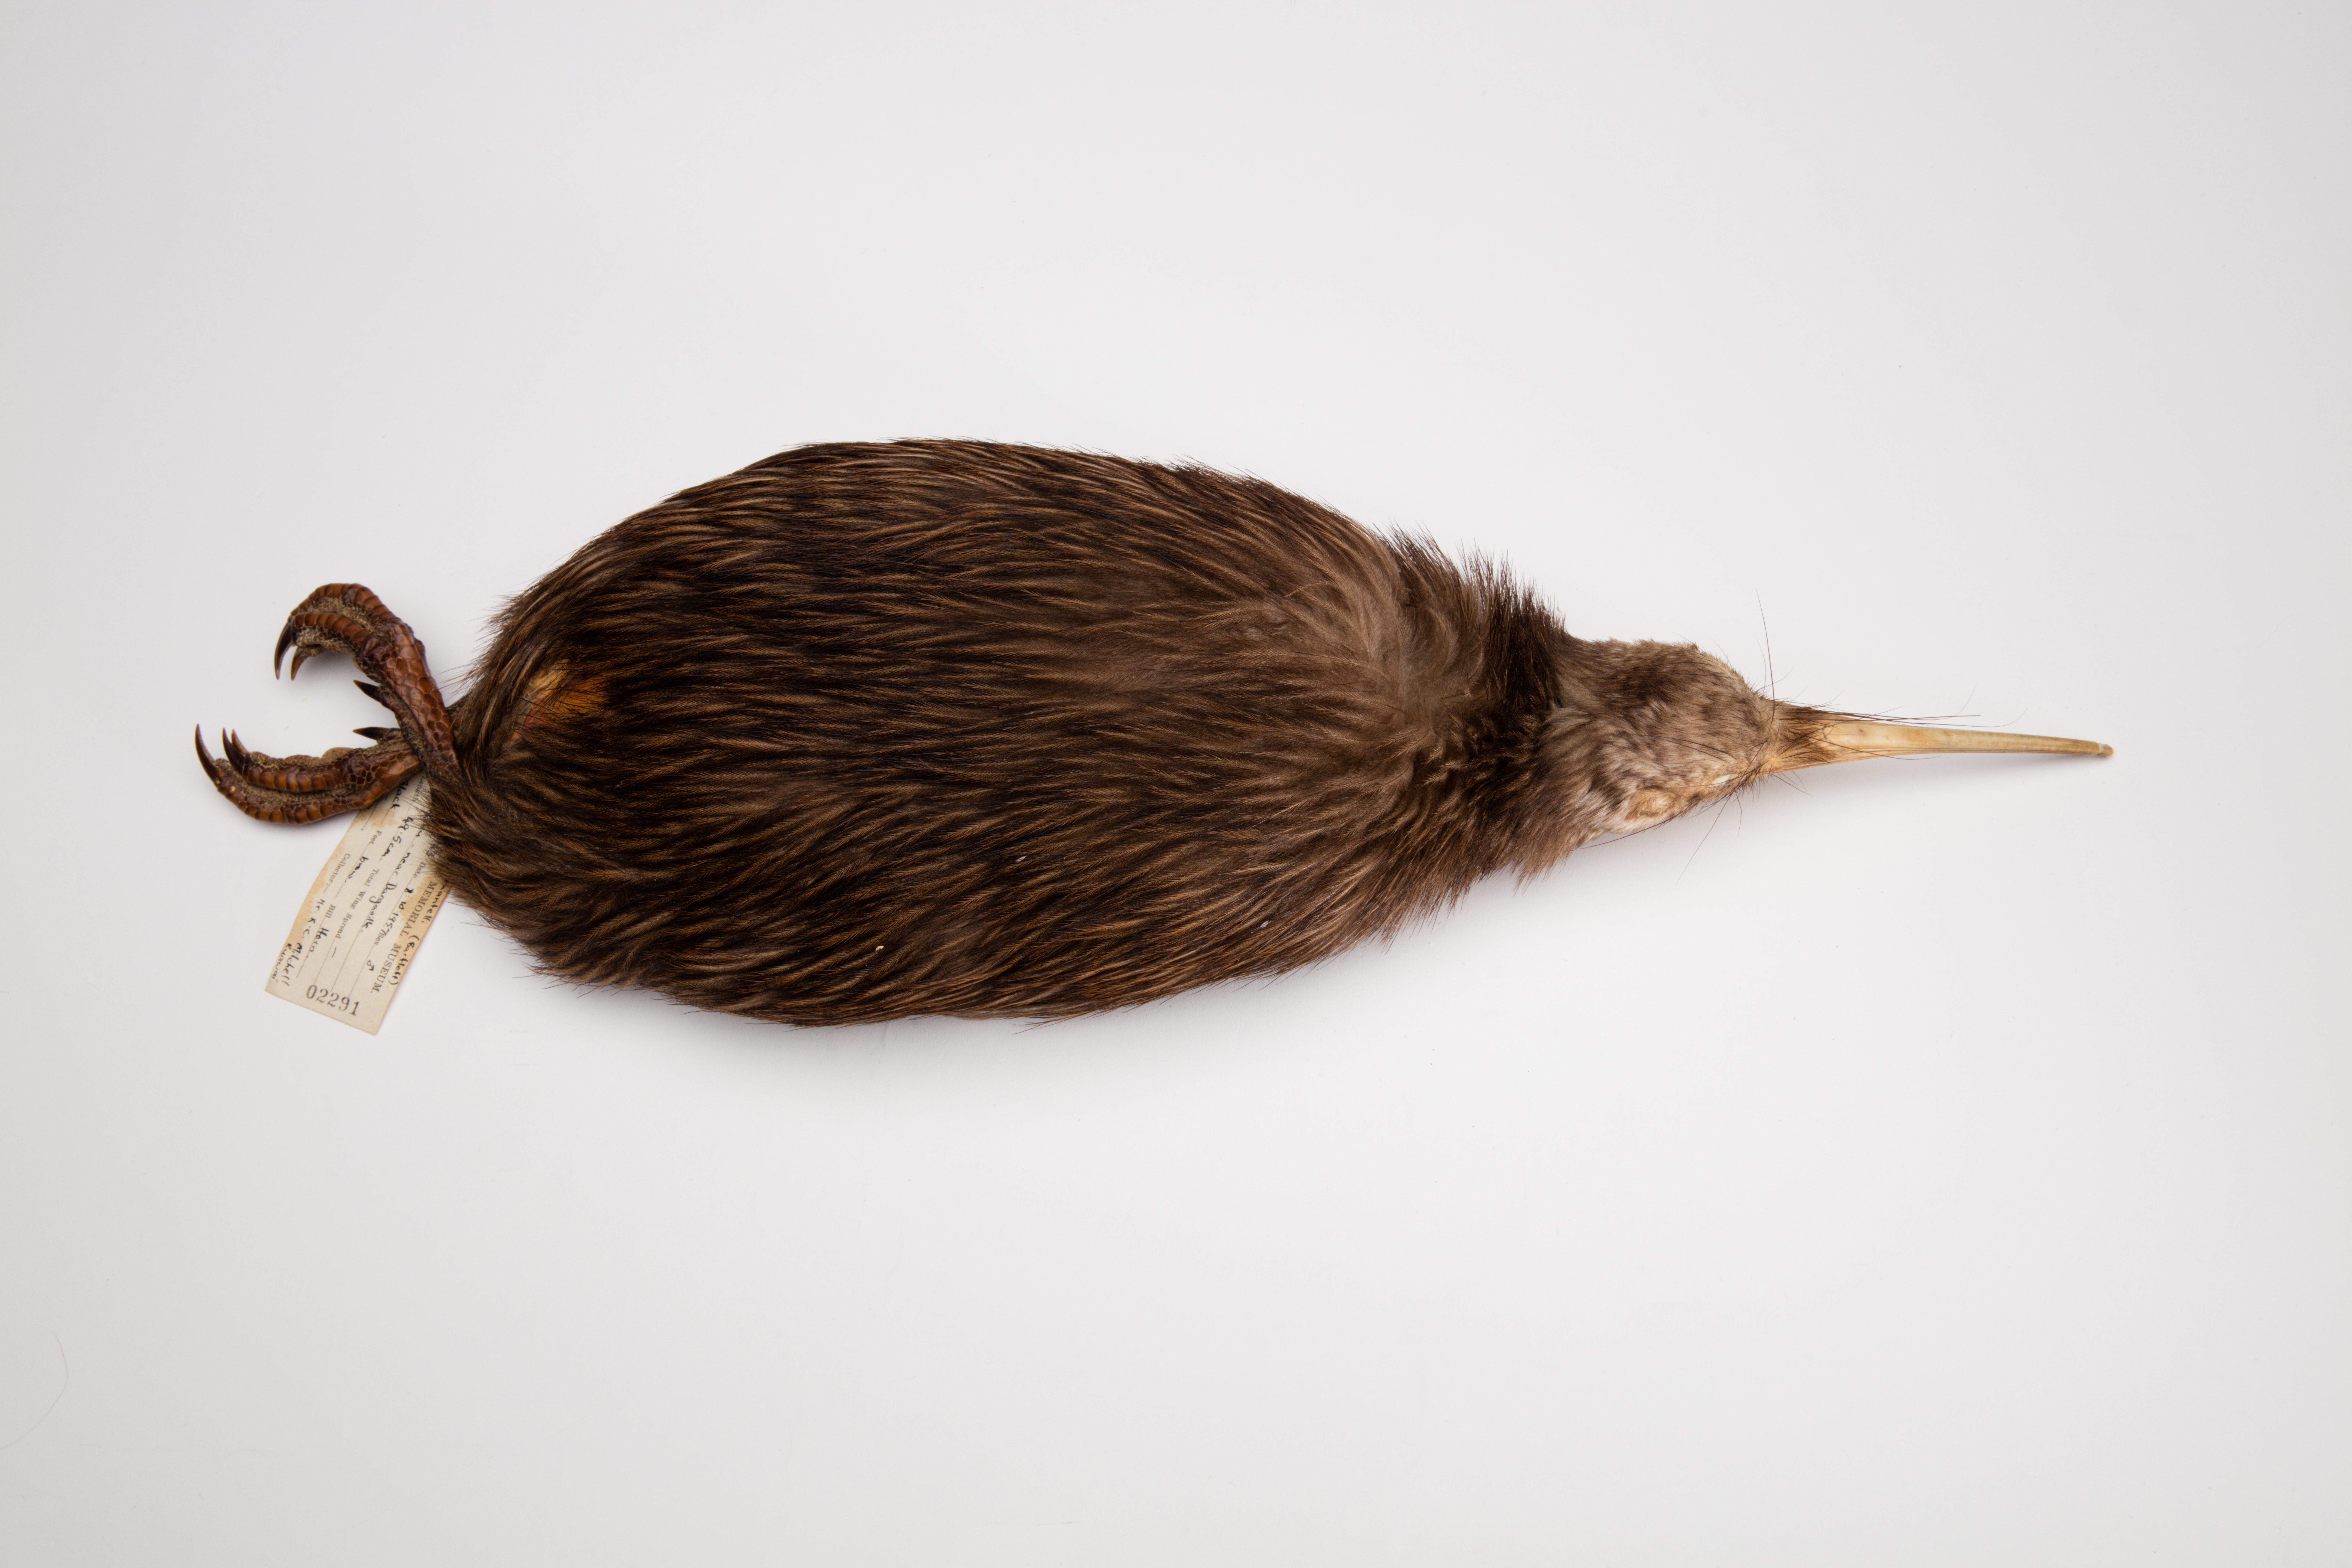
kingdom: Animalia
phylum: Chordata
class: Aves
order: Apterygiformes
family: Apterygidae
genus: Apteryx
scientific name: Apteryx mantelli
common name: North island brown kiwi
